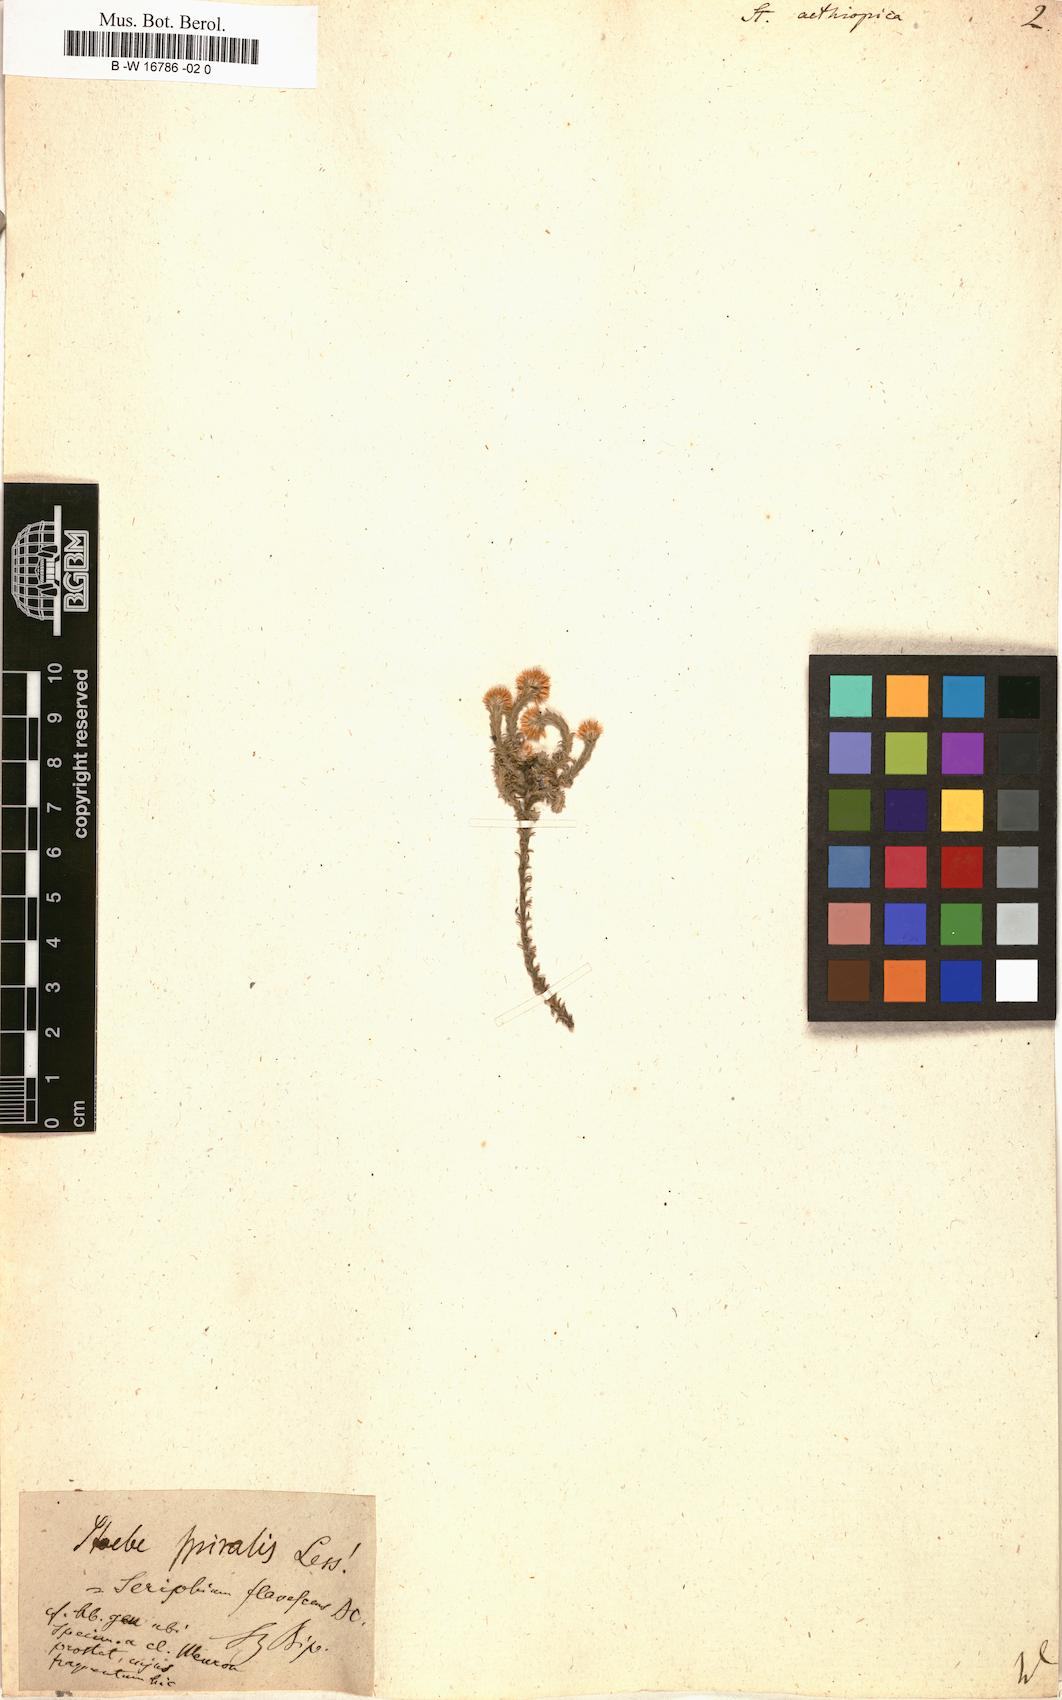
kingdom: Plantae
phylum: Tracheophyta
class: Magnoliopsida
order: Asterales
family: Asteraceae
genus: Stoebe
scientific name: Stoebe aethiopica
